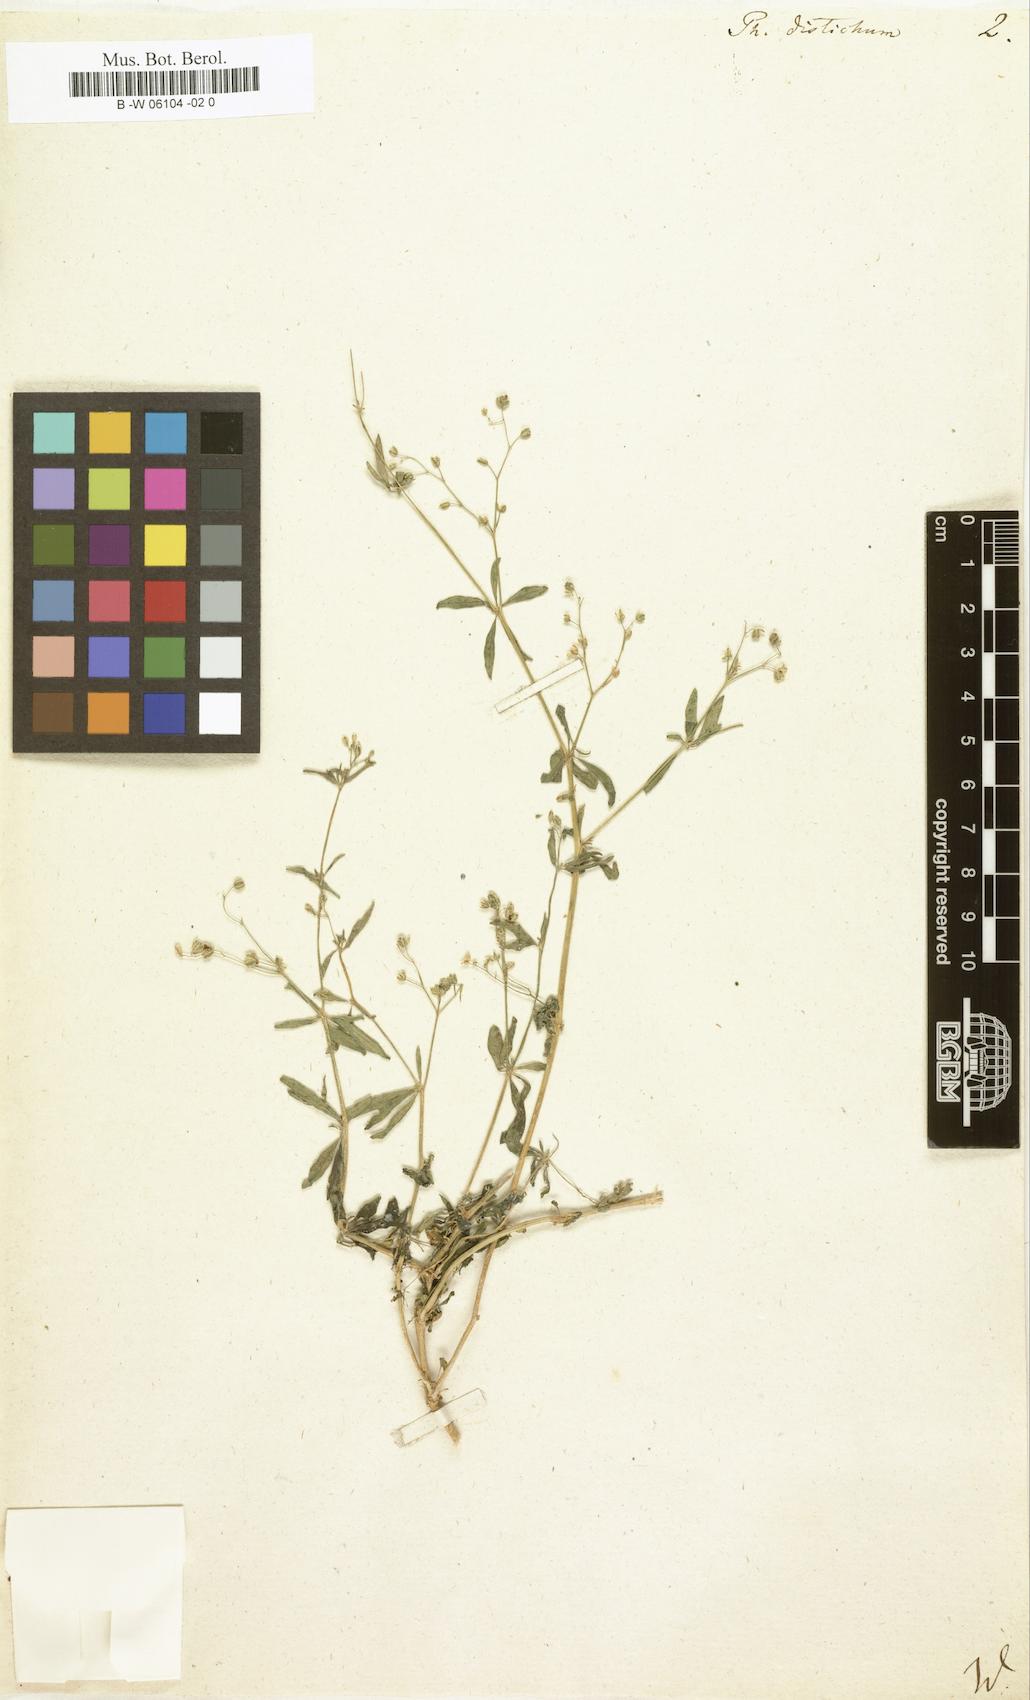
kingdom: Plantae
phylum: Tracheophyta
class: Magnoliopsida
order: Caryophyllales
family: Molluginaceae
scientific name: Molluginaceae
